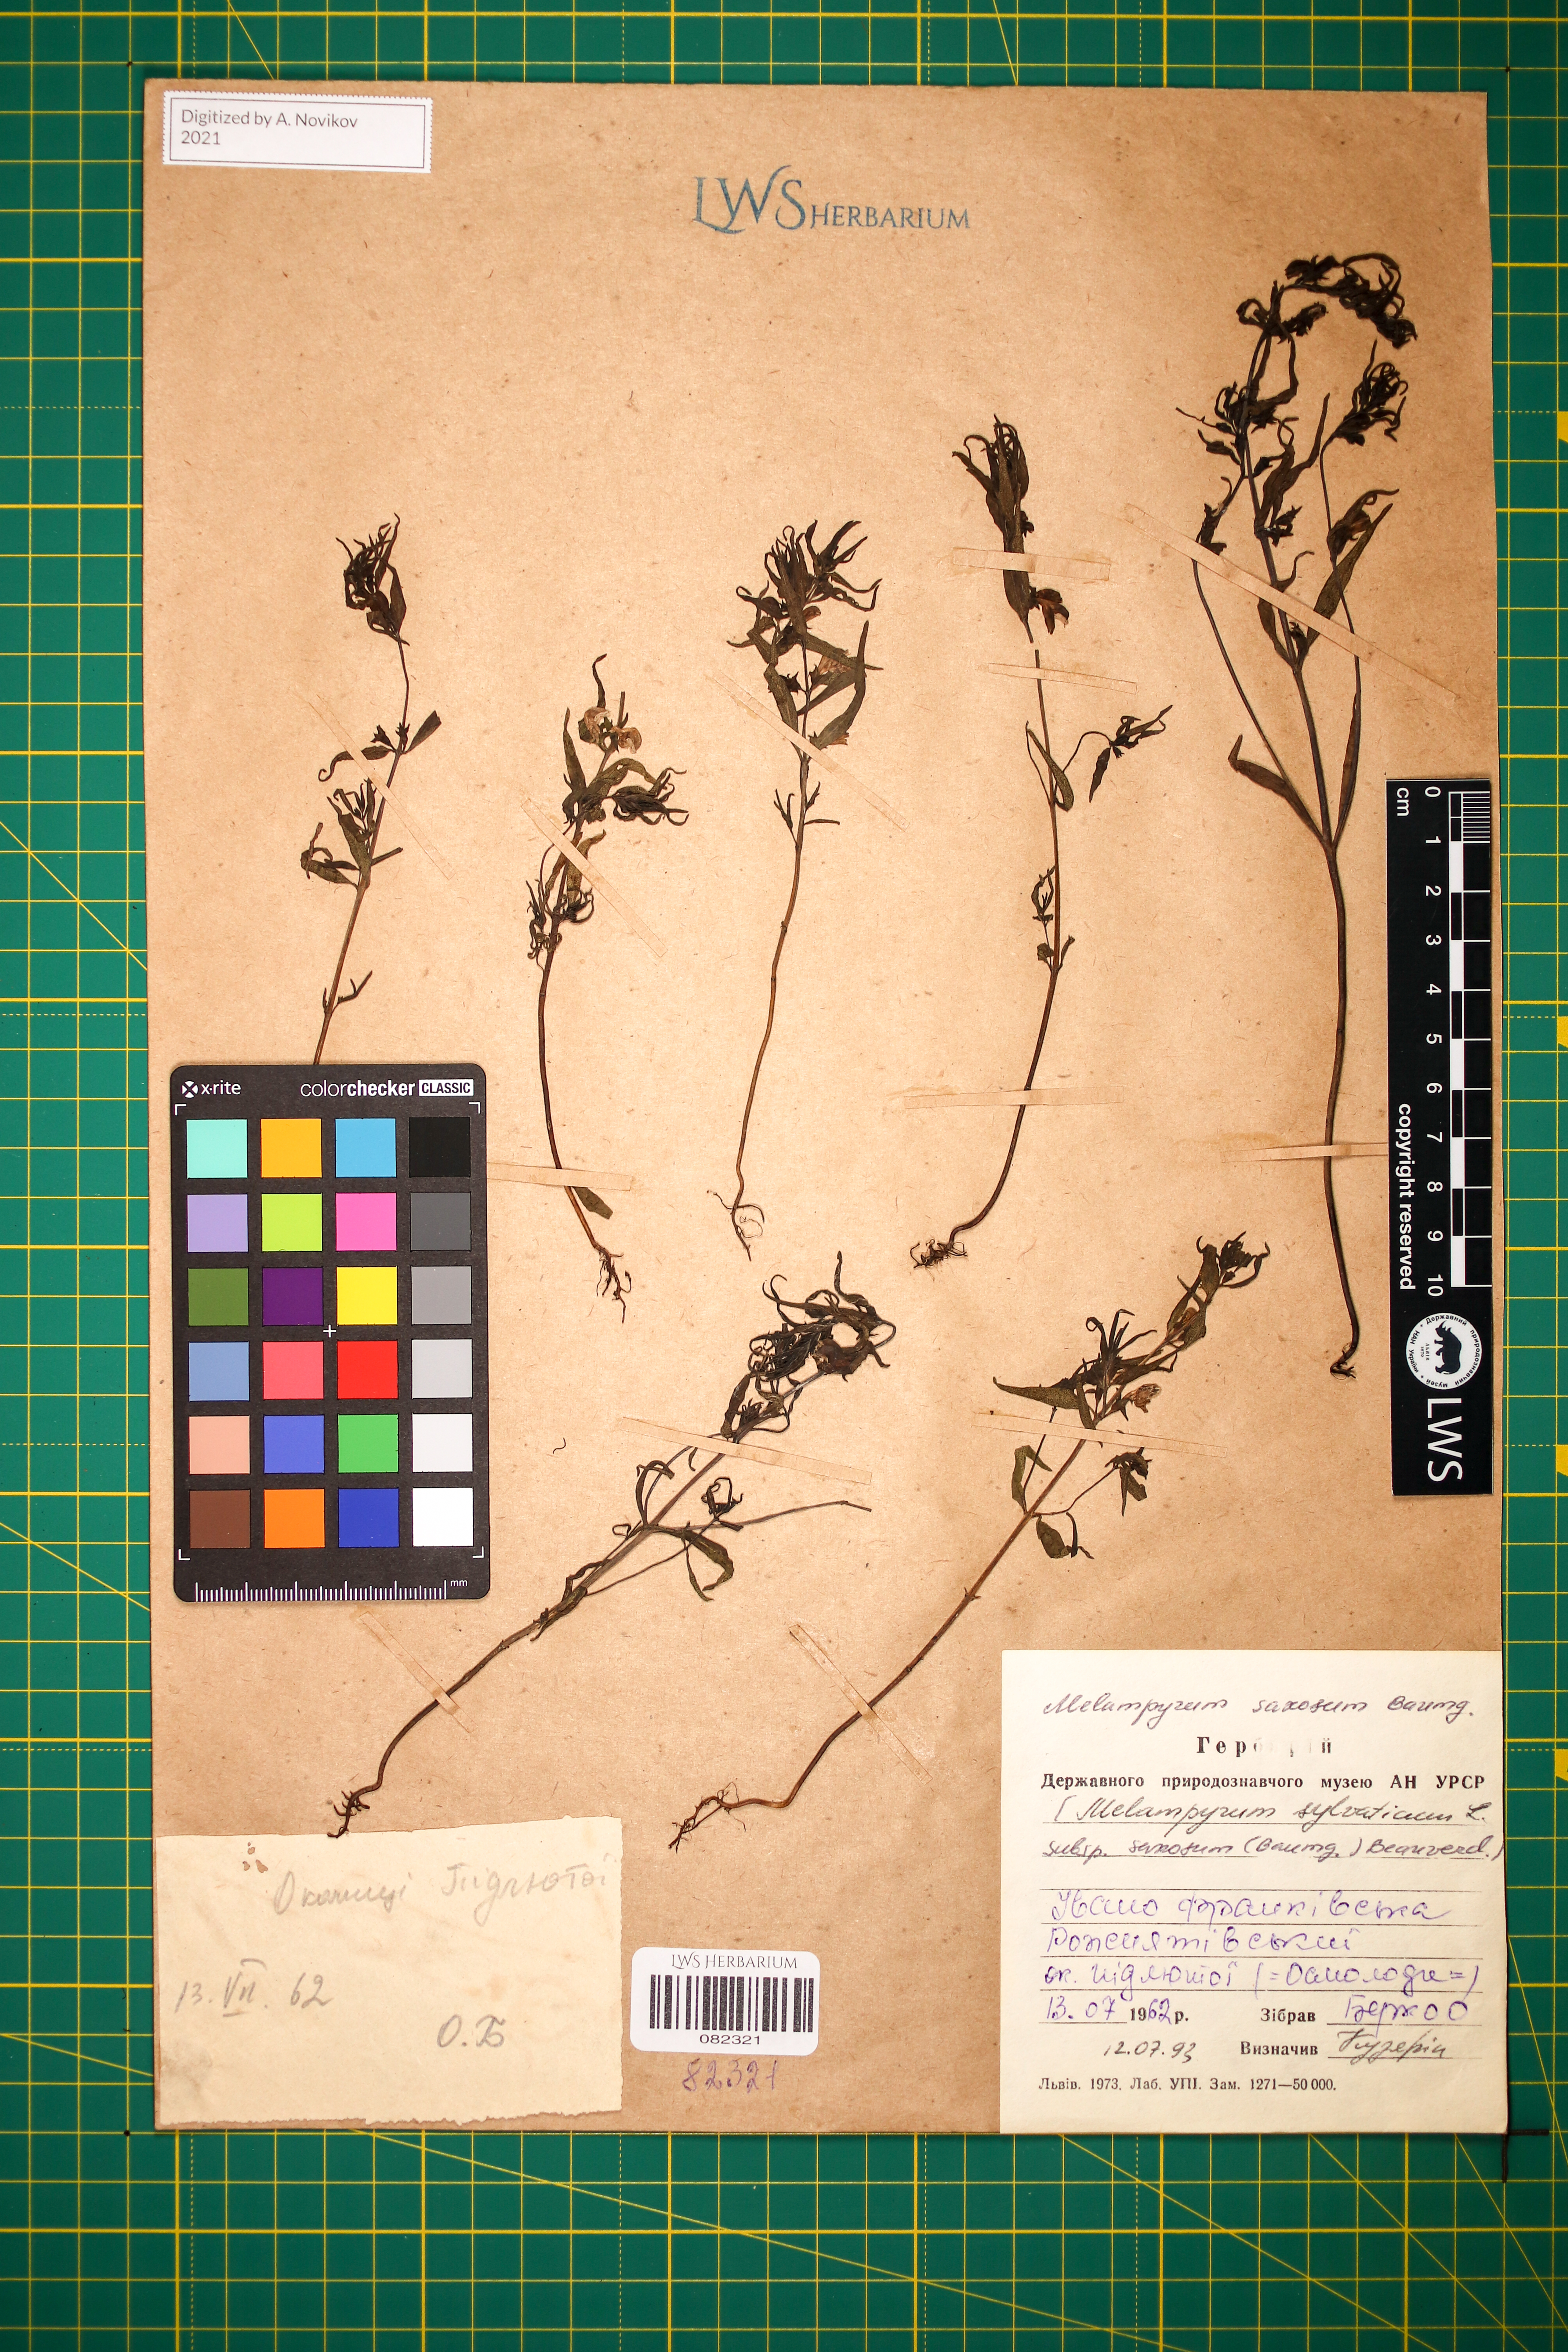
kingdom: Plantae
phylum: Tracheophyta
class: Magnoliopsida
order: Lamiales
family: Orobanchaceae
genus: Melampyrum
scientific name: Melampyrum saxosum
